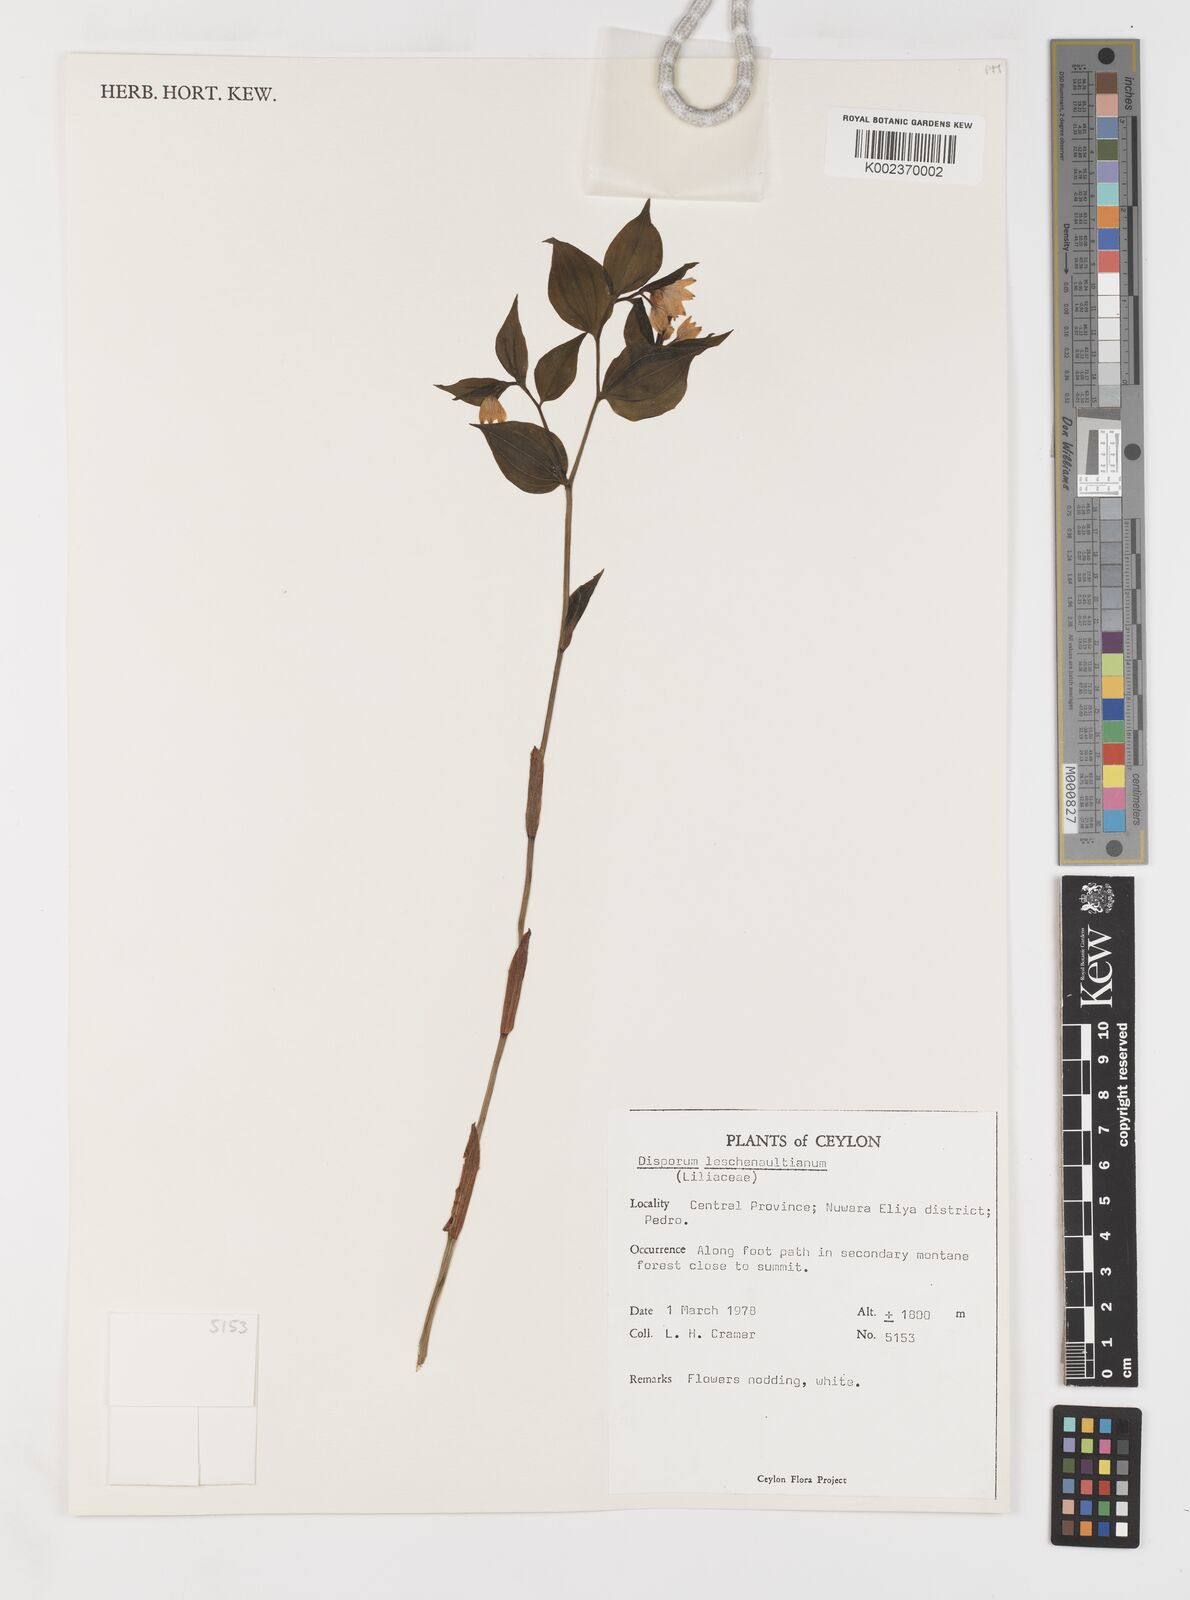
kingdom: Plantae
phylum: Tracheophyta
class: Liliopsida
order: Liliales
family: Colchicaceae
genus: Disporum
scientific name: Disporum cantoniense
